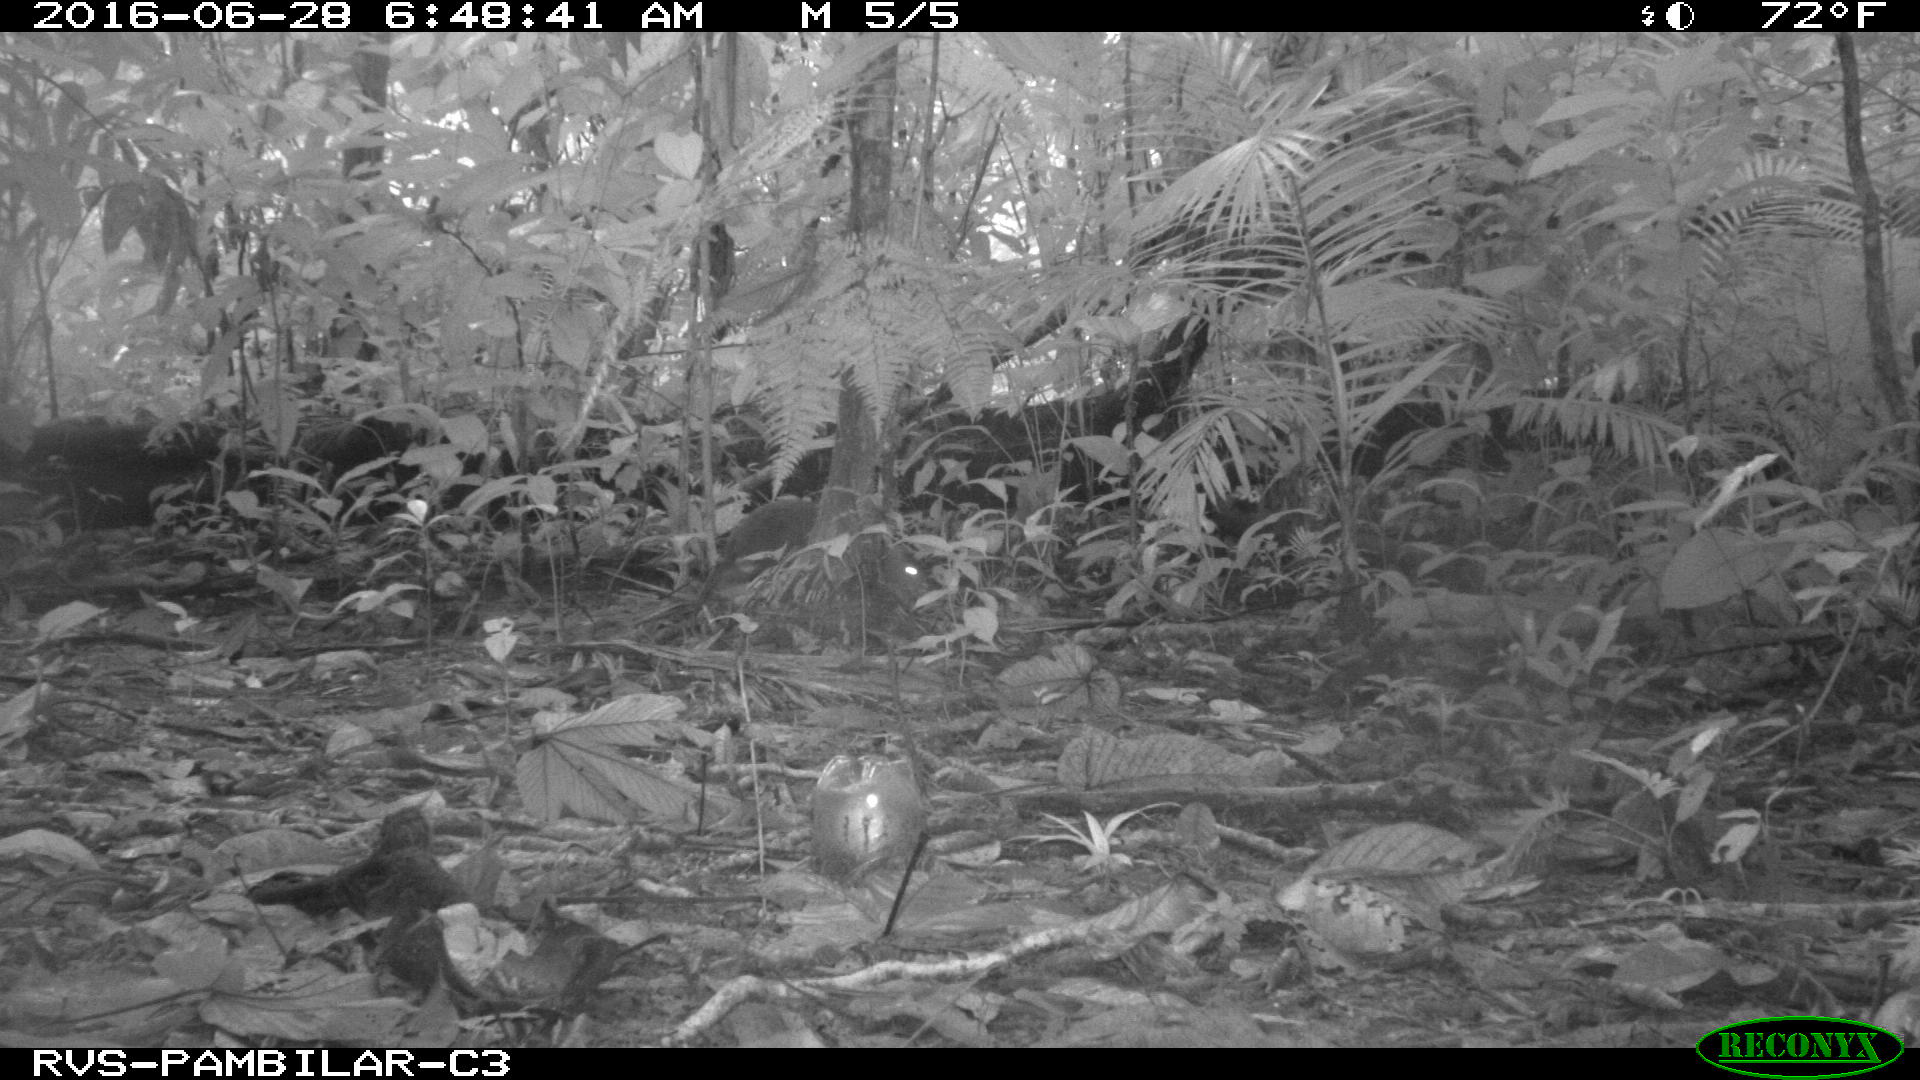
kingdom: Animalia
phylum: Chordata
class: Mammalia
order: Rodentia
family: Dasyproctidae
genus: Dasyprocta
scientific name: Dasyprocta punctata
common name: Central american agouti
